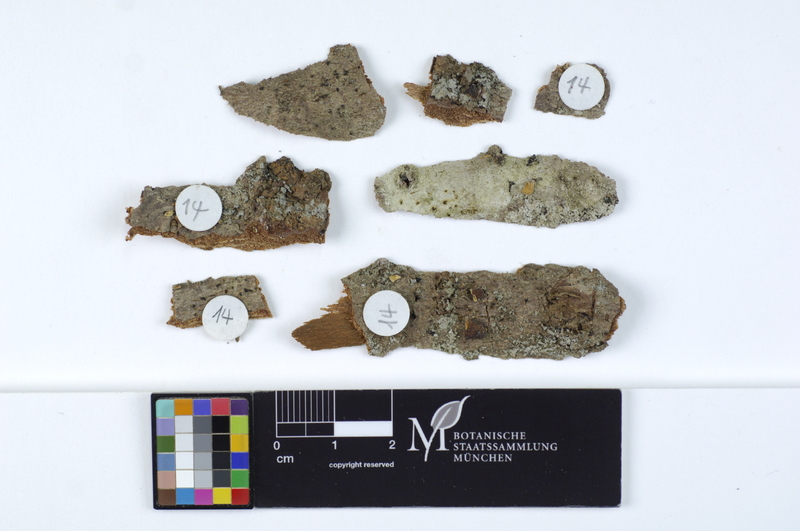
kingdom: Fungi
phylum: Basidiomycota
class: Agaricomycetes
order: Agaricales
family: Cyphellaceae
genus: Cyphella
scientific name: Cyphella digitalis
